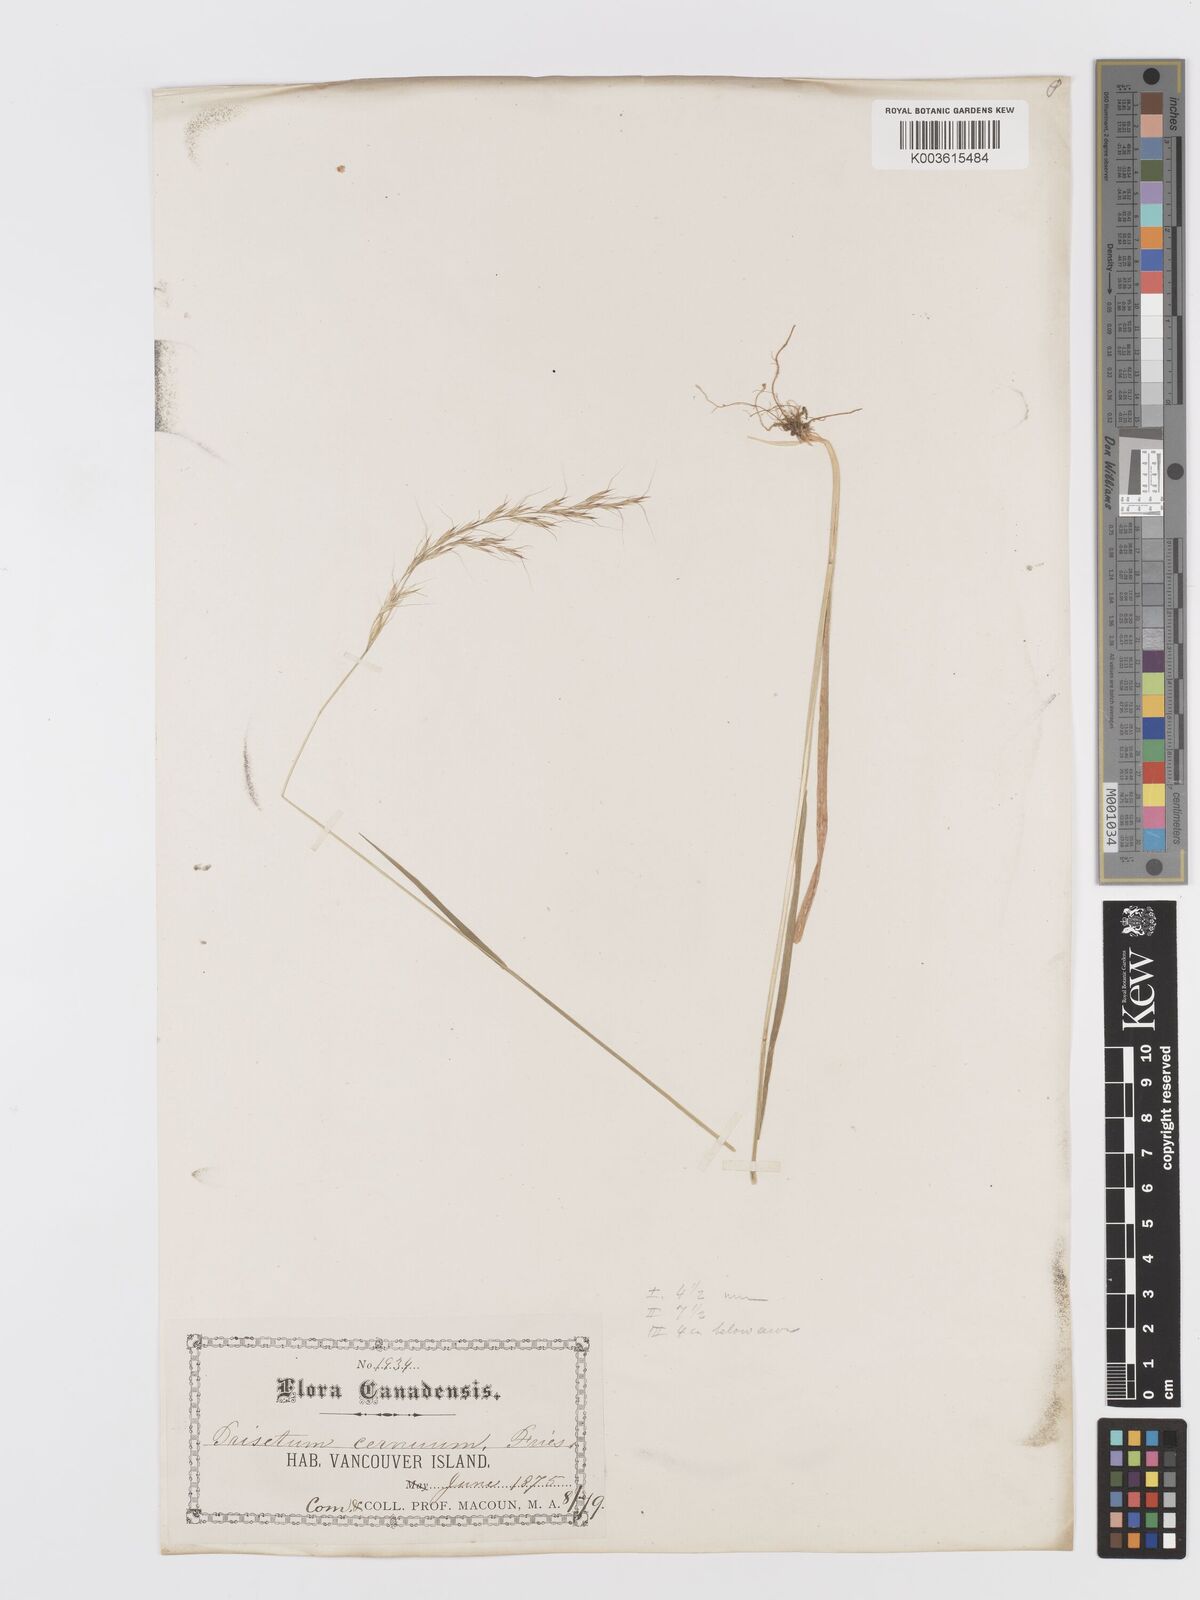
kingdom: Plantae
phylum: Tracheophyta
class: Liliopsida
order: Poales
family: Poaceae
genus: Graphephorum
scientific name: Graphephorum cernuum
